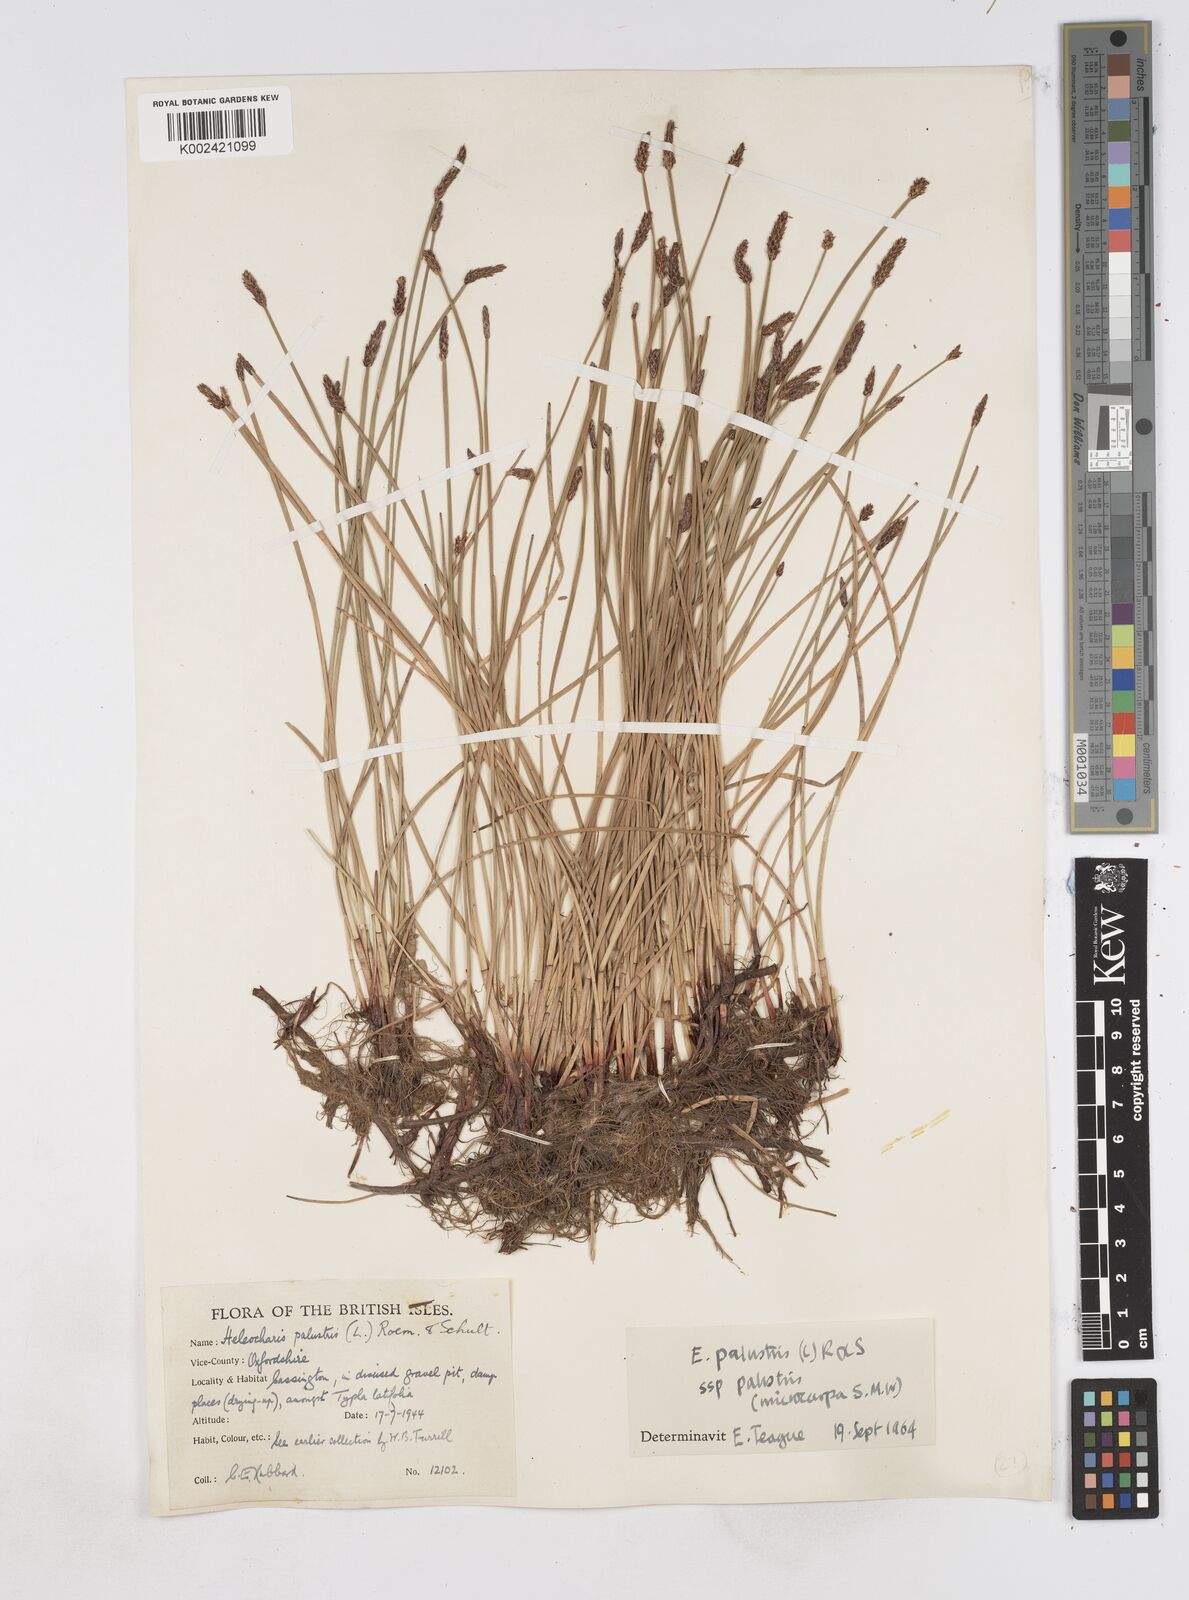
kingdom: Plantae
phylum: Tracheophyta
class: Liliopsida
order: Poales
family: Cyperaceae
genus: Eleocharis
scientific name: Eleocharis palustris
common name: Common spike-rush
